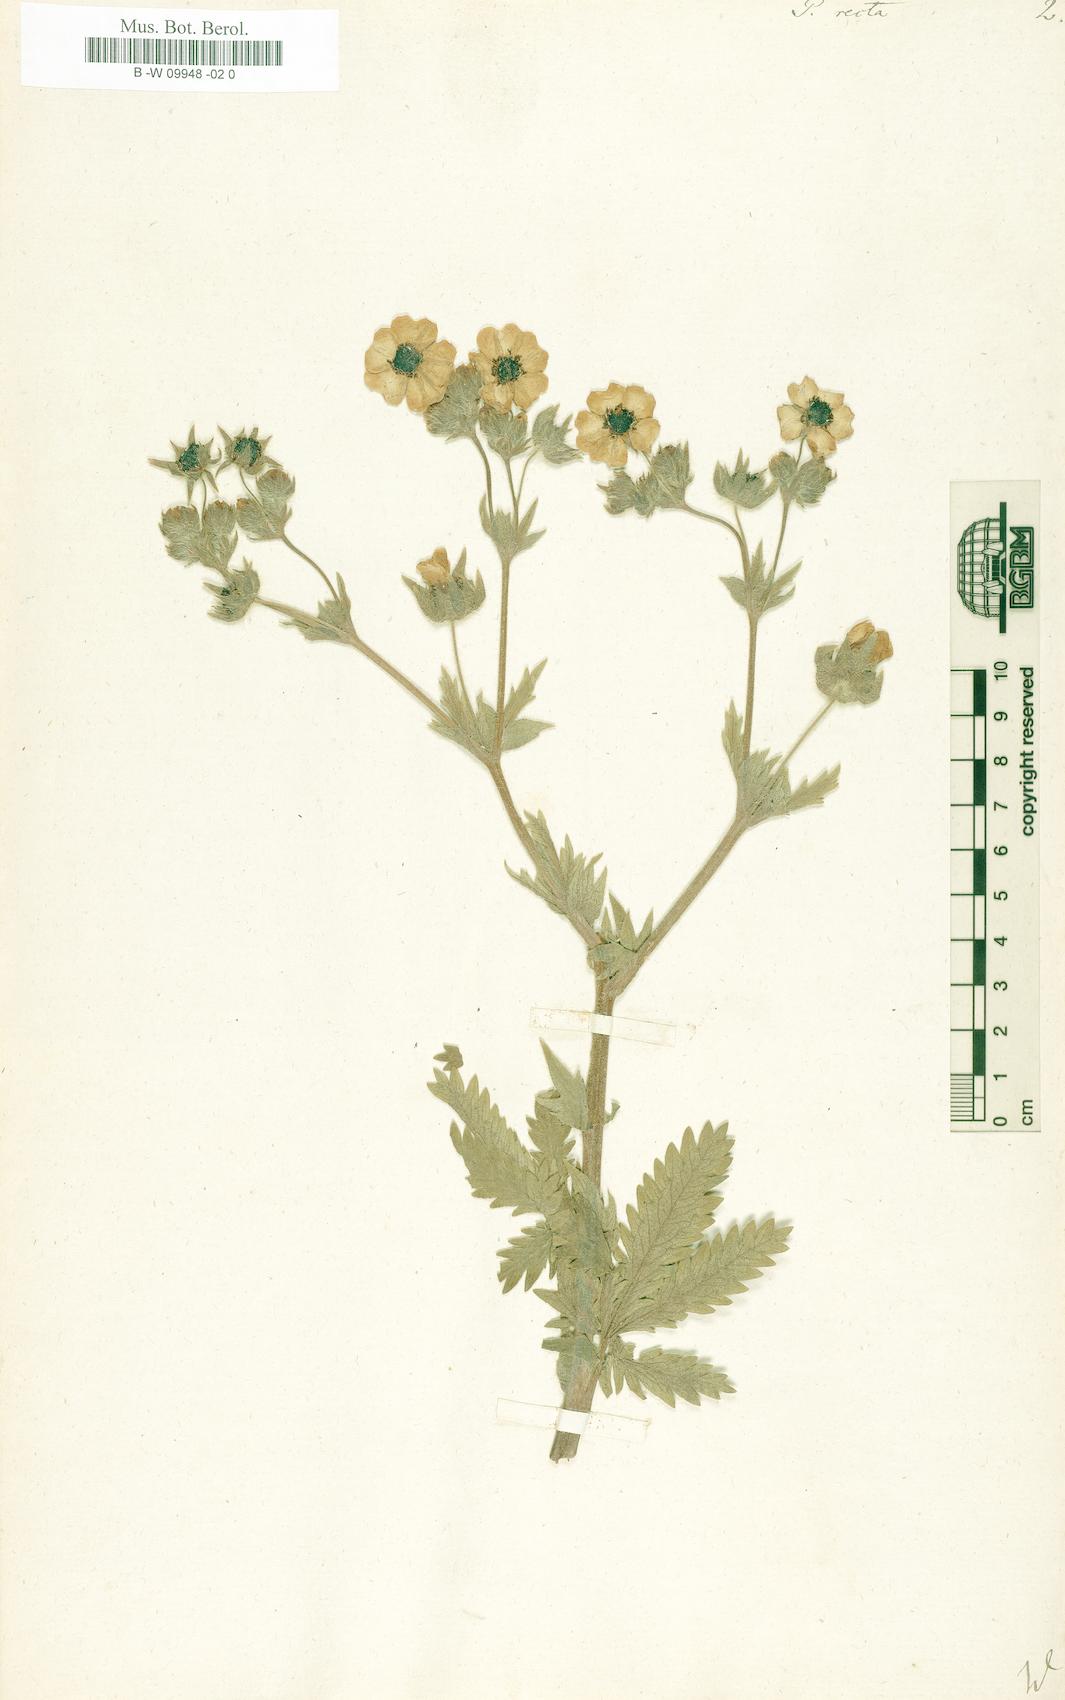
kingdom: Plantae
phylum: Tracheophyta
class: Magnoliopsida
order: Rosales
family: Rosaceae
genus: Potentilla
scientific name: Potentilla recta
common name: Sulphur cinquefoil
